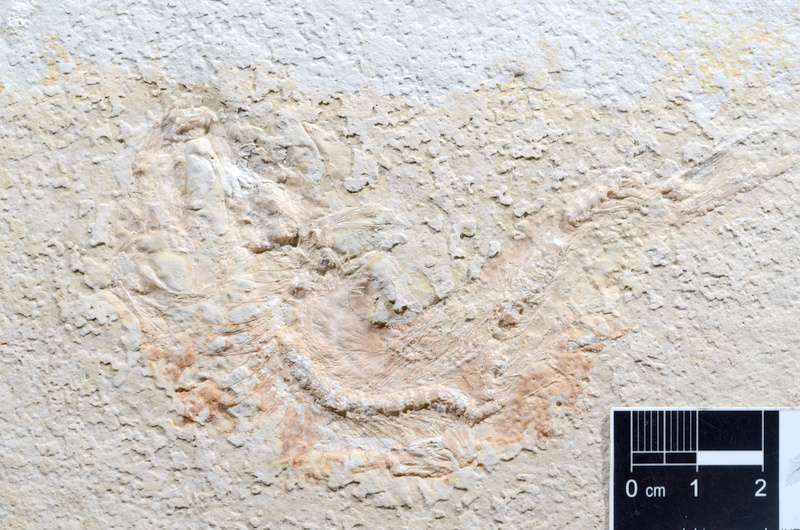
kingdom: Animalia
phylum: Chordata
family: Ascalaboidae
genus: Tharsis
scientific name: Tharsis dubius
